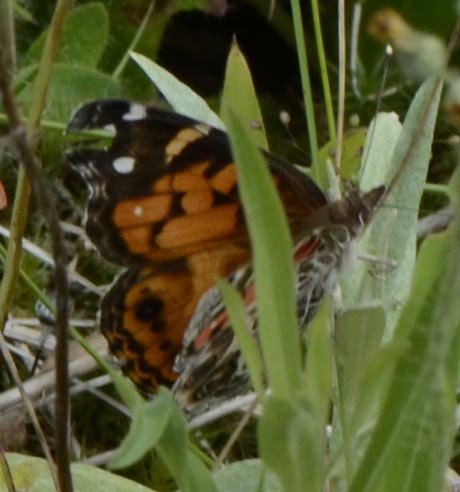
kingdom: Animalia
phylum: Arthropoda
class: Insecta
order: Lepidoptera
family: Nymphalidae
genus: Vanessa
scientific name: Vanessa virginiensis
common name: American Lady
